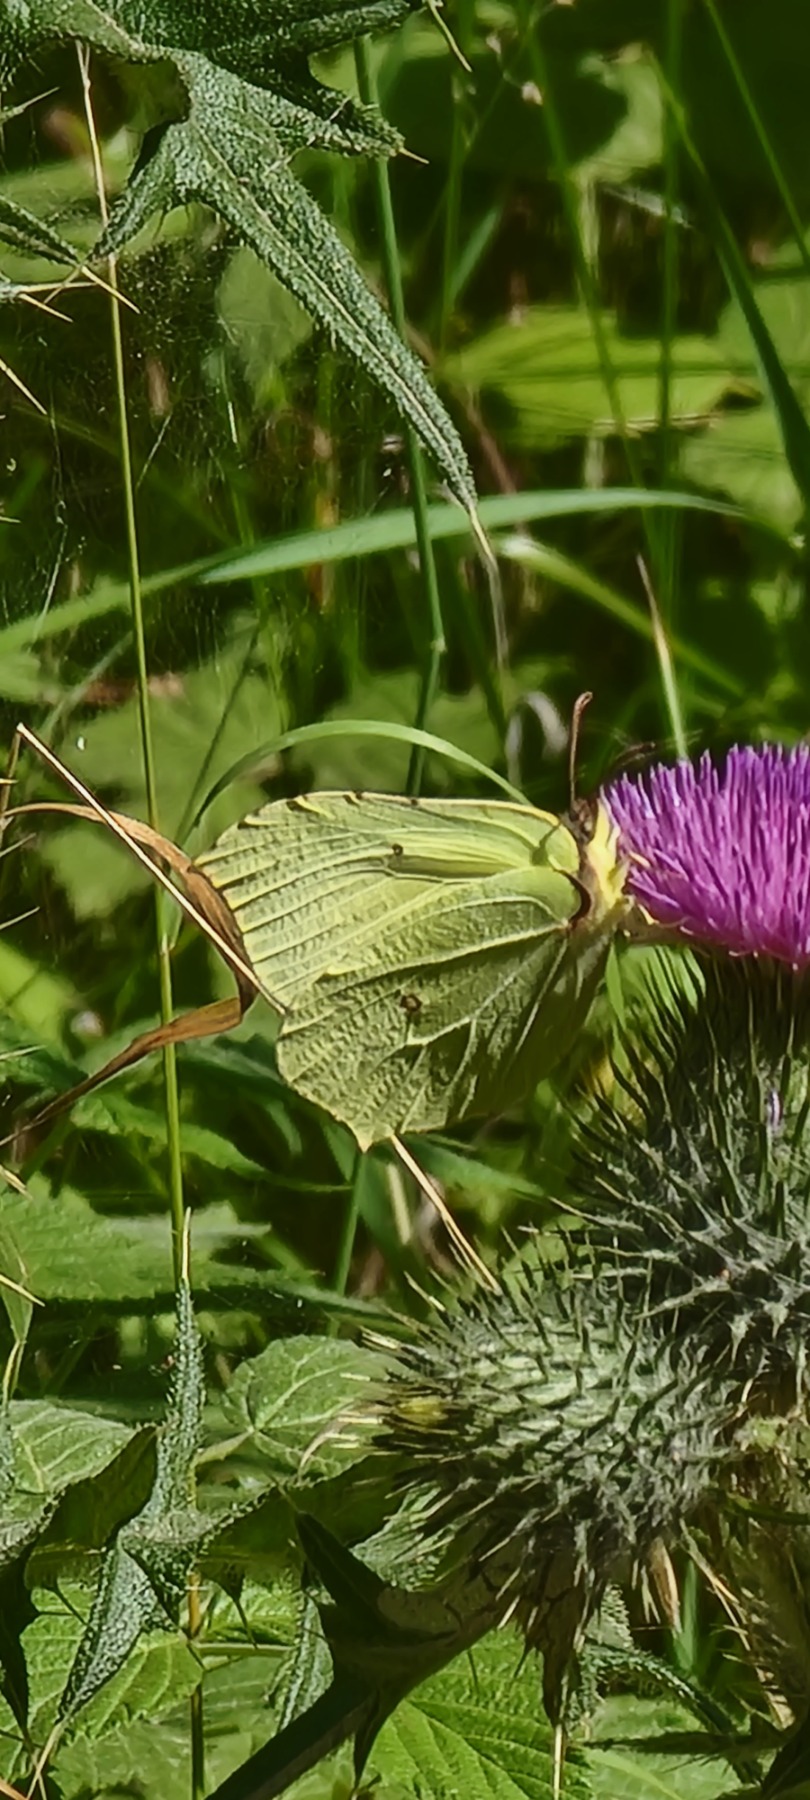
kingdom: Animalia
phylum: Arthropoda
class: Insecta
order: Lepidoptera
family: Pieridae
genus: Gonepteryx
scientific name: Gonepteryx rhamni
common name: Citronsommerfugl
